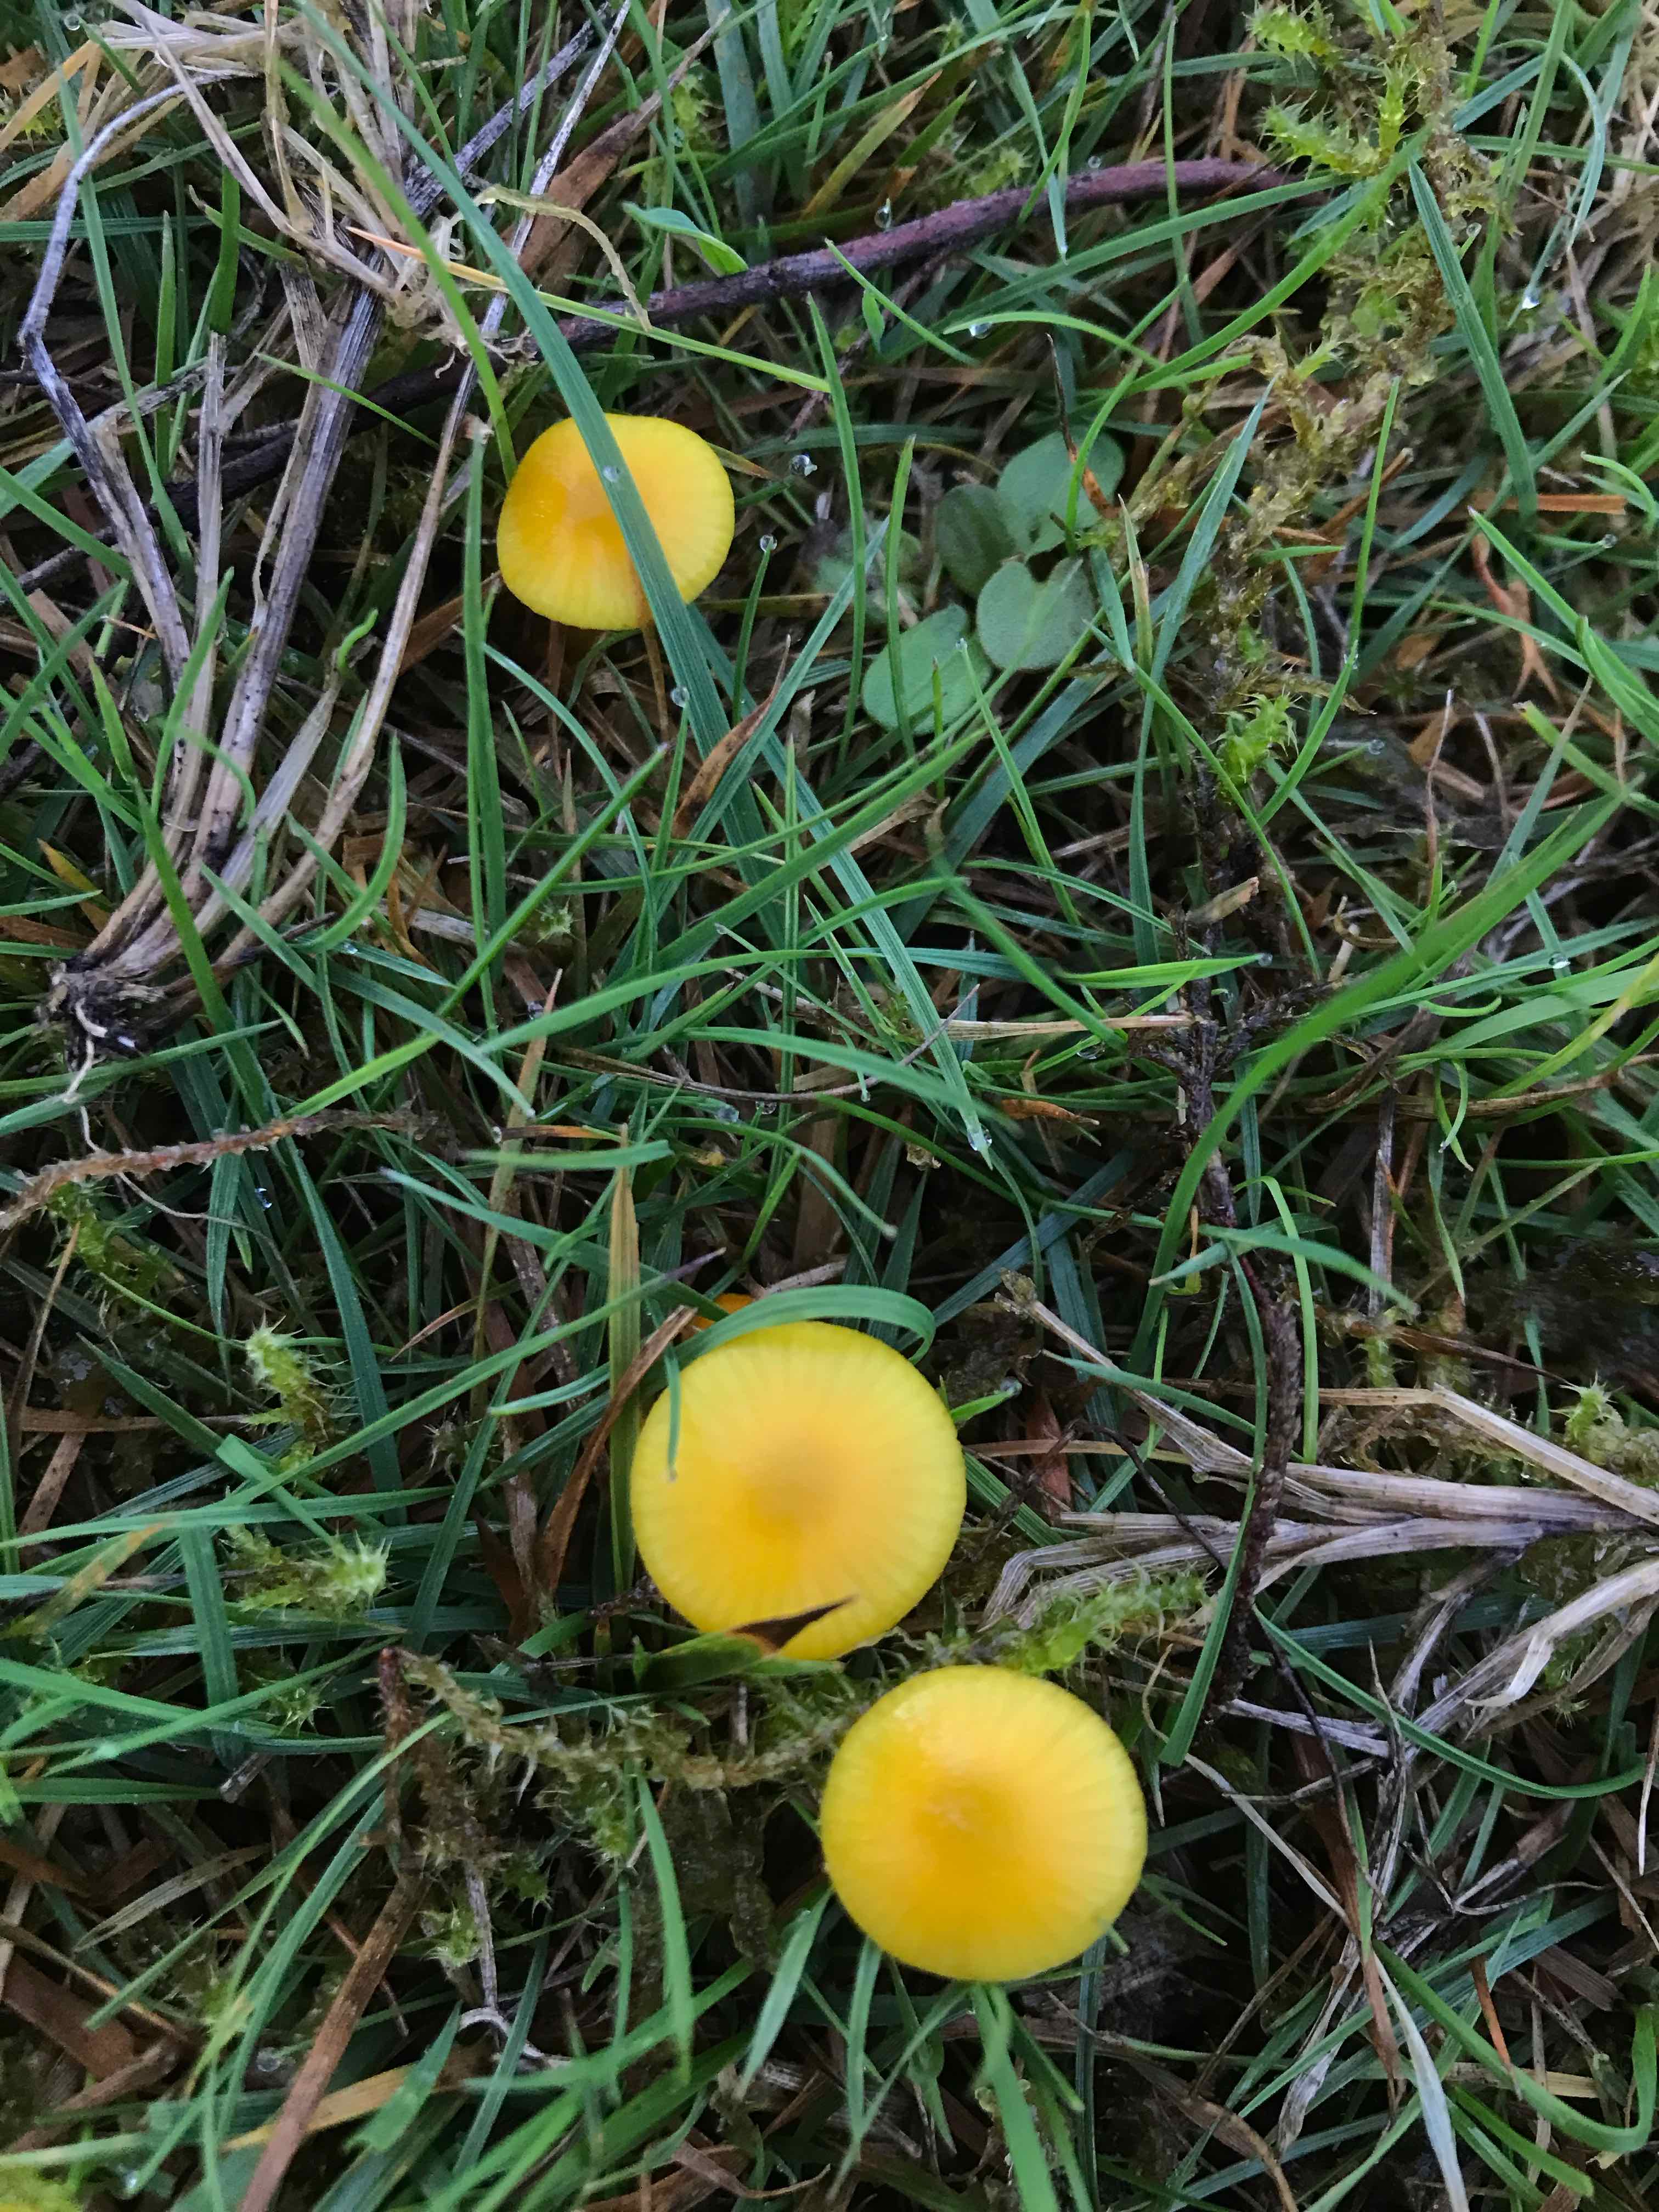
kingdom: Fungi
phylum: Basidiomycota
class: Agaricomycetes
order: Agaricales
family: Hygrophoraceae
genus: Hygrocybe
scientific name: Hygrocybe ceracea
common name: voksgul vokshat
